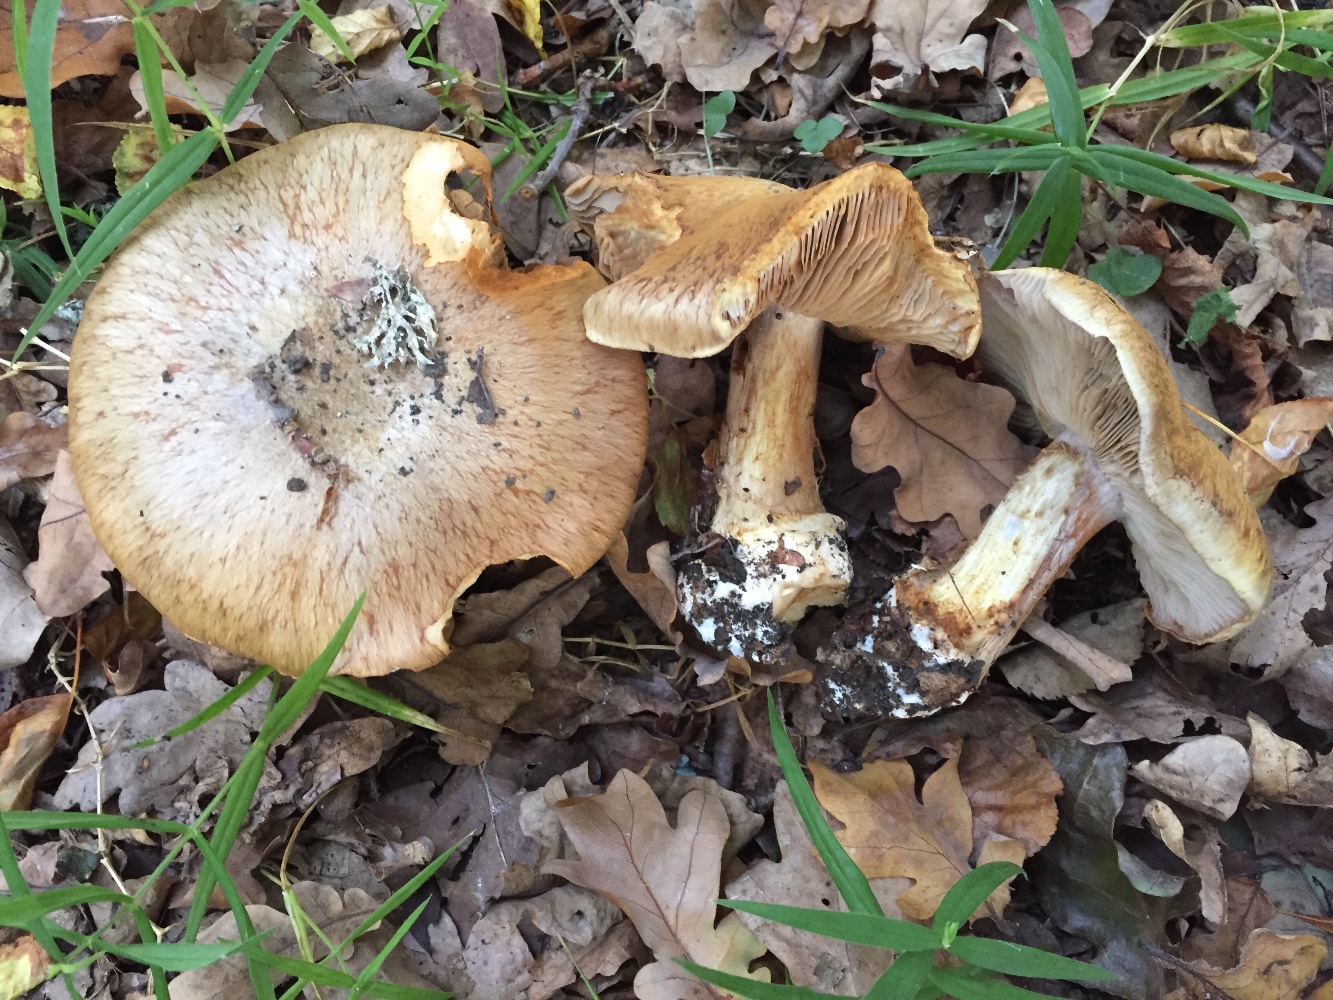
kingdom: Fungi
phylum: Basidiomycota
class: Agaricomycetes
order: Agaricales
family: Cortinariaceae
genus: Phlegmacium
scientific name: Phlegmacium
